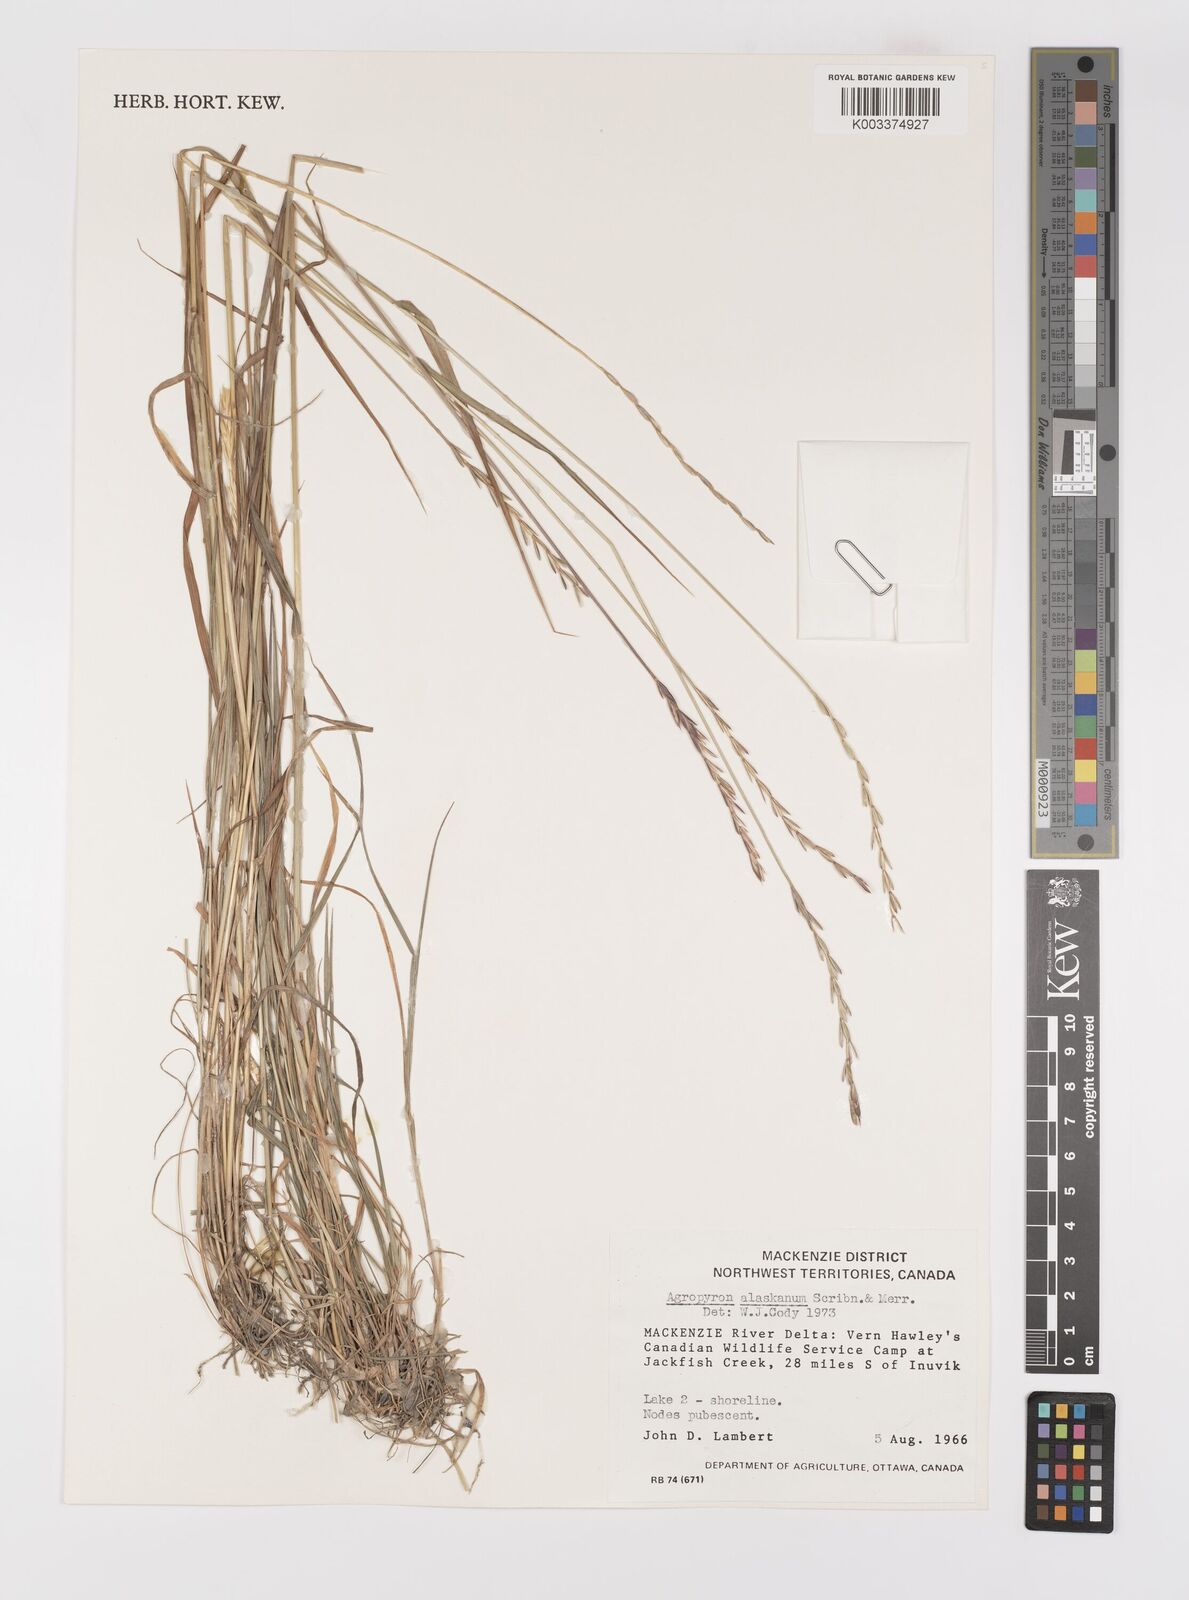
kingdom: Plantae
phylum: Tracheophyta
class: Liliopsida
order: Poales
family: Poaceae
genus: Elymus
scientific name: Elymus alaskanus
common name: Alaska wheatgrass
